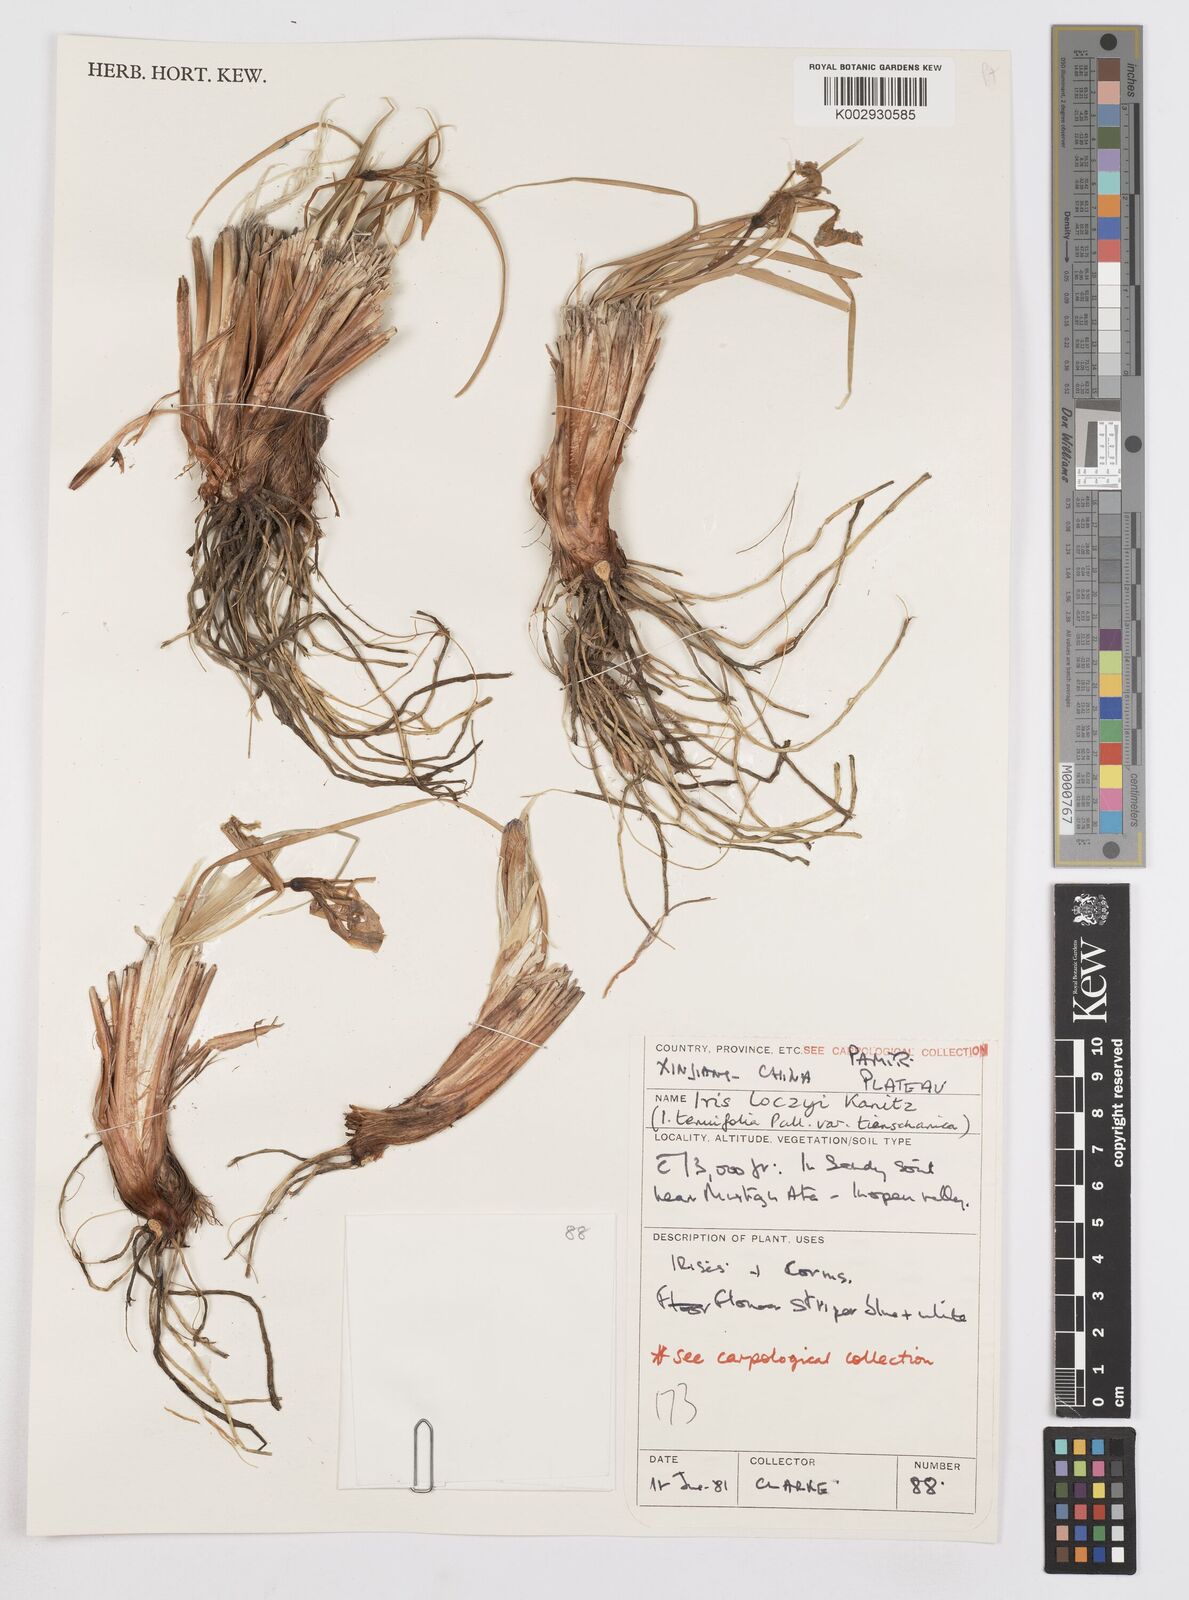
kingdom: Plantae
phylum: Tracheophyta
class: Liliopsida
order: Asparagales
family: Iridaceae
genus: Iris
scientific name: Iris loczyi
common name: Tian shan mountain iris
